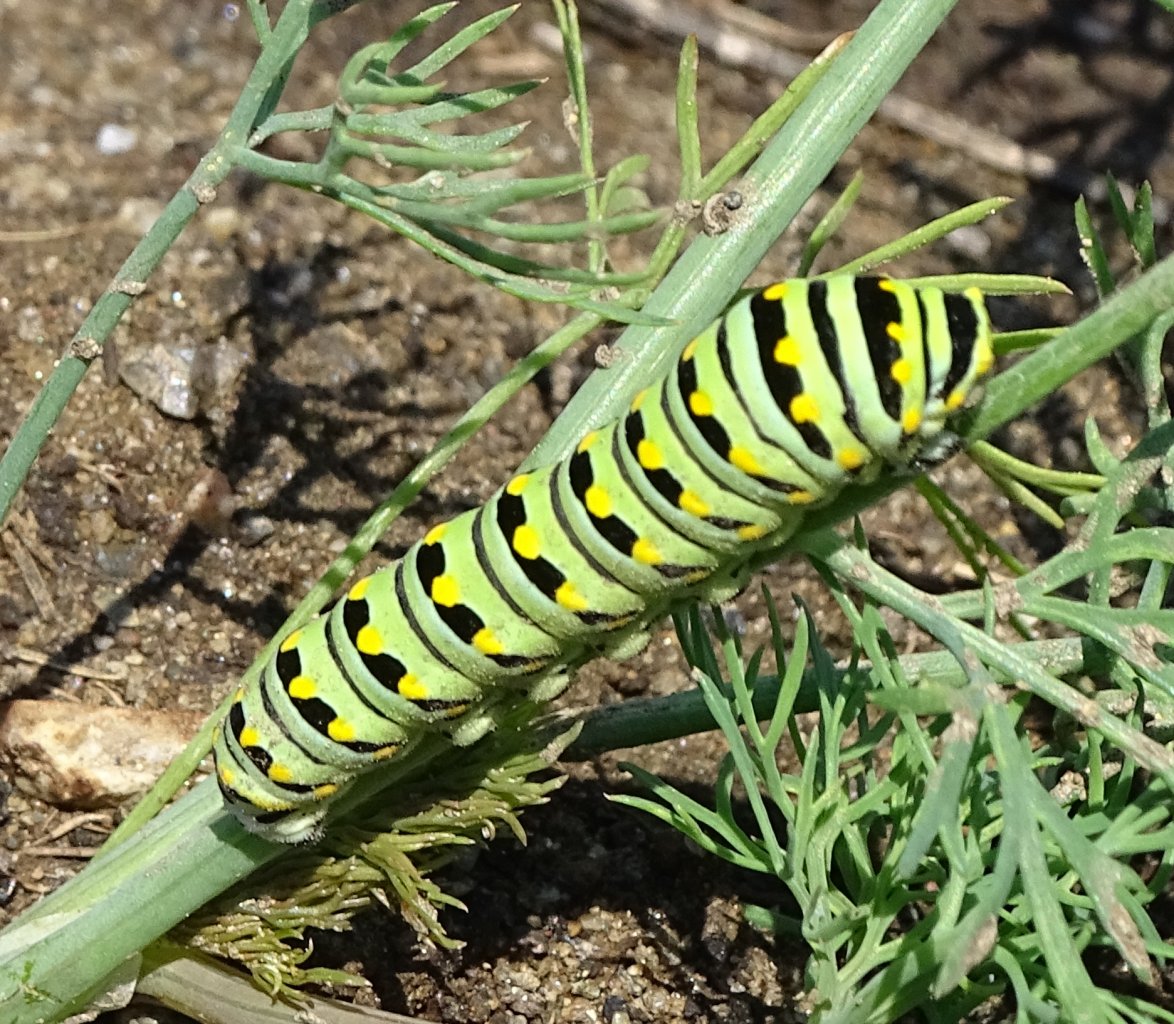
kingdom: Animalia
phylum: Arthropoda
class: Insecta
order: Lepidoptera
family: Papilionidae
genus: Papilio
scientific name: Papilio polyxenes
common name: Black Swallowtail
